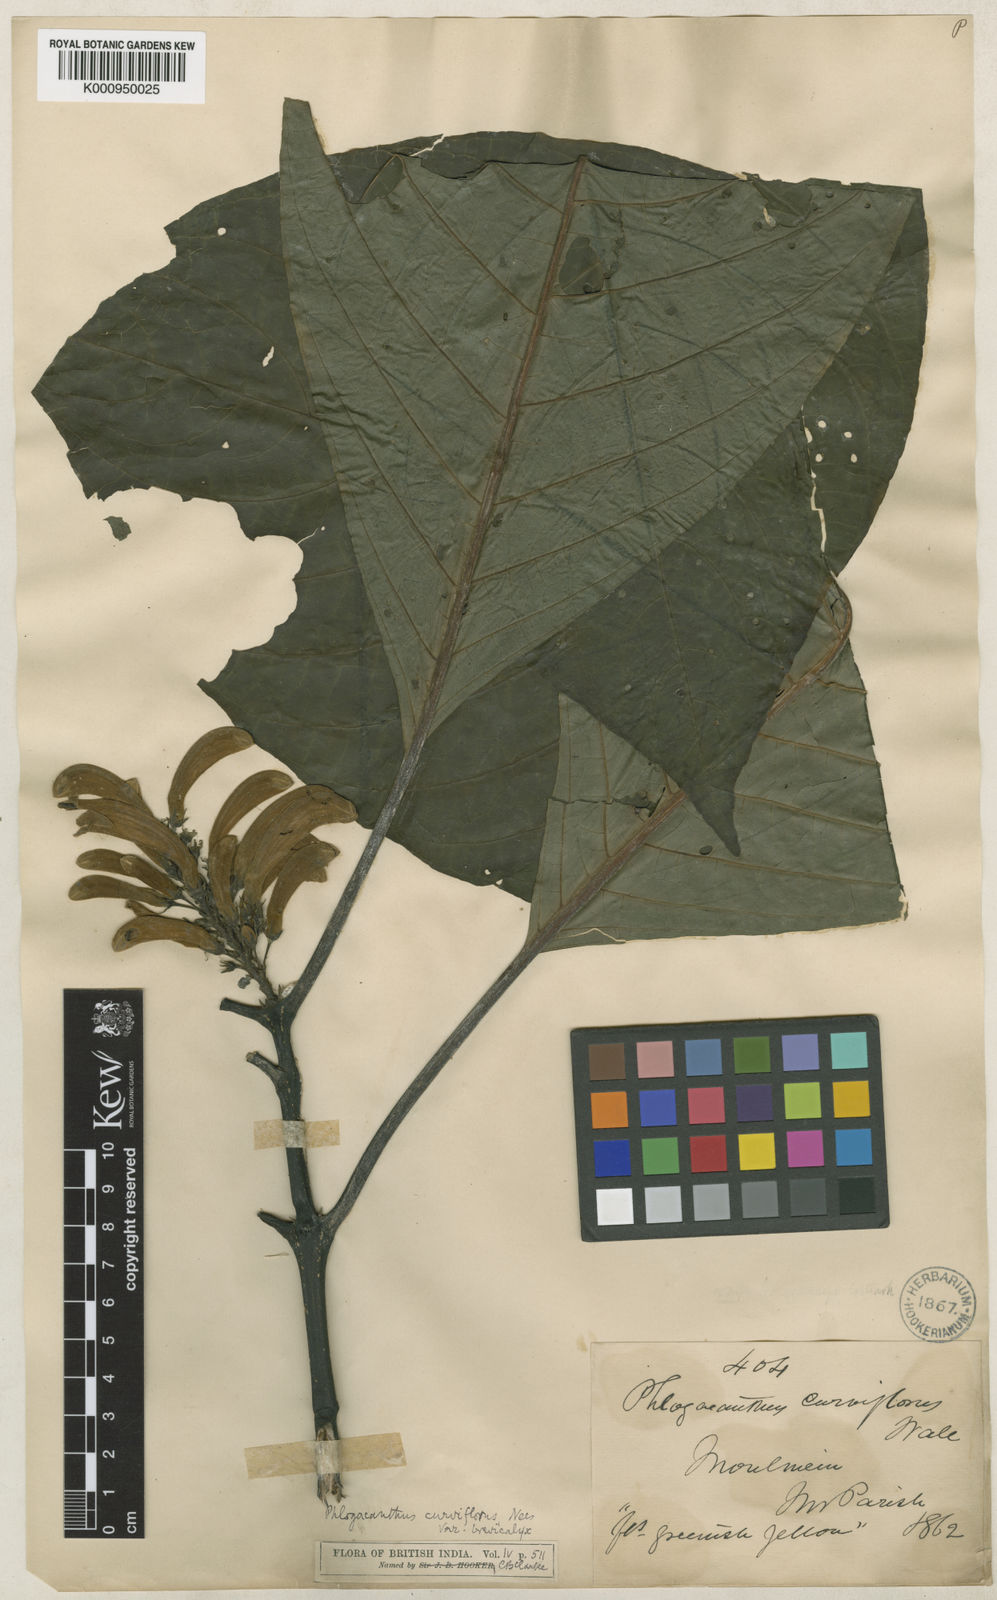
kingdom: Plantae
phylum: Tracheophyta
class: Magnoliopsida
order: Lamiales
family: Acanthaceae
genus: Phlogacanthus
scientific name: Phlogacanthus
